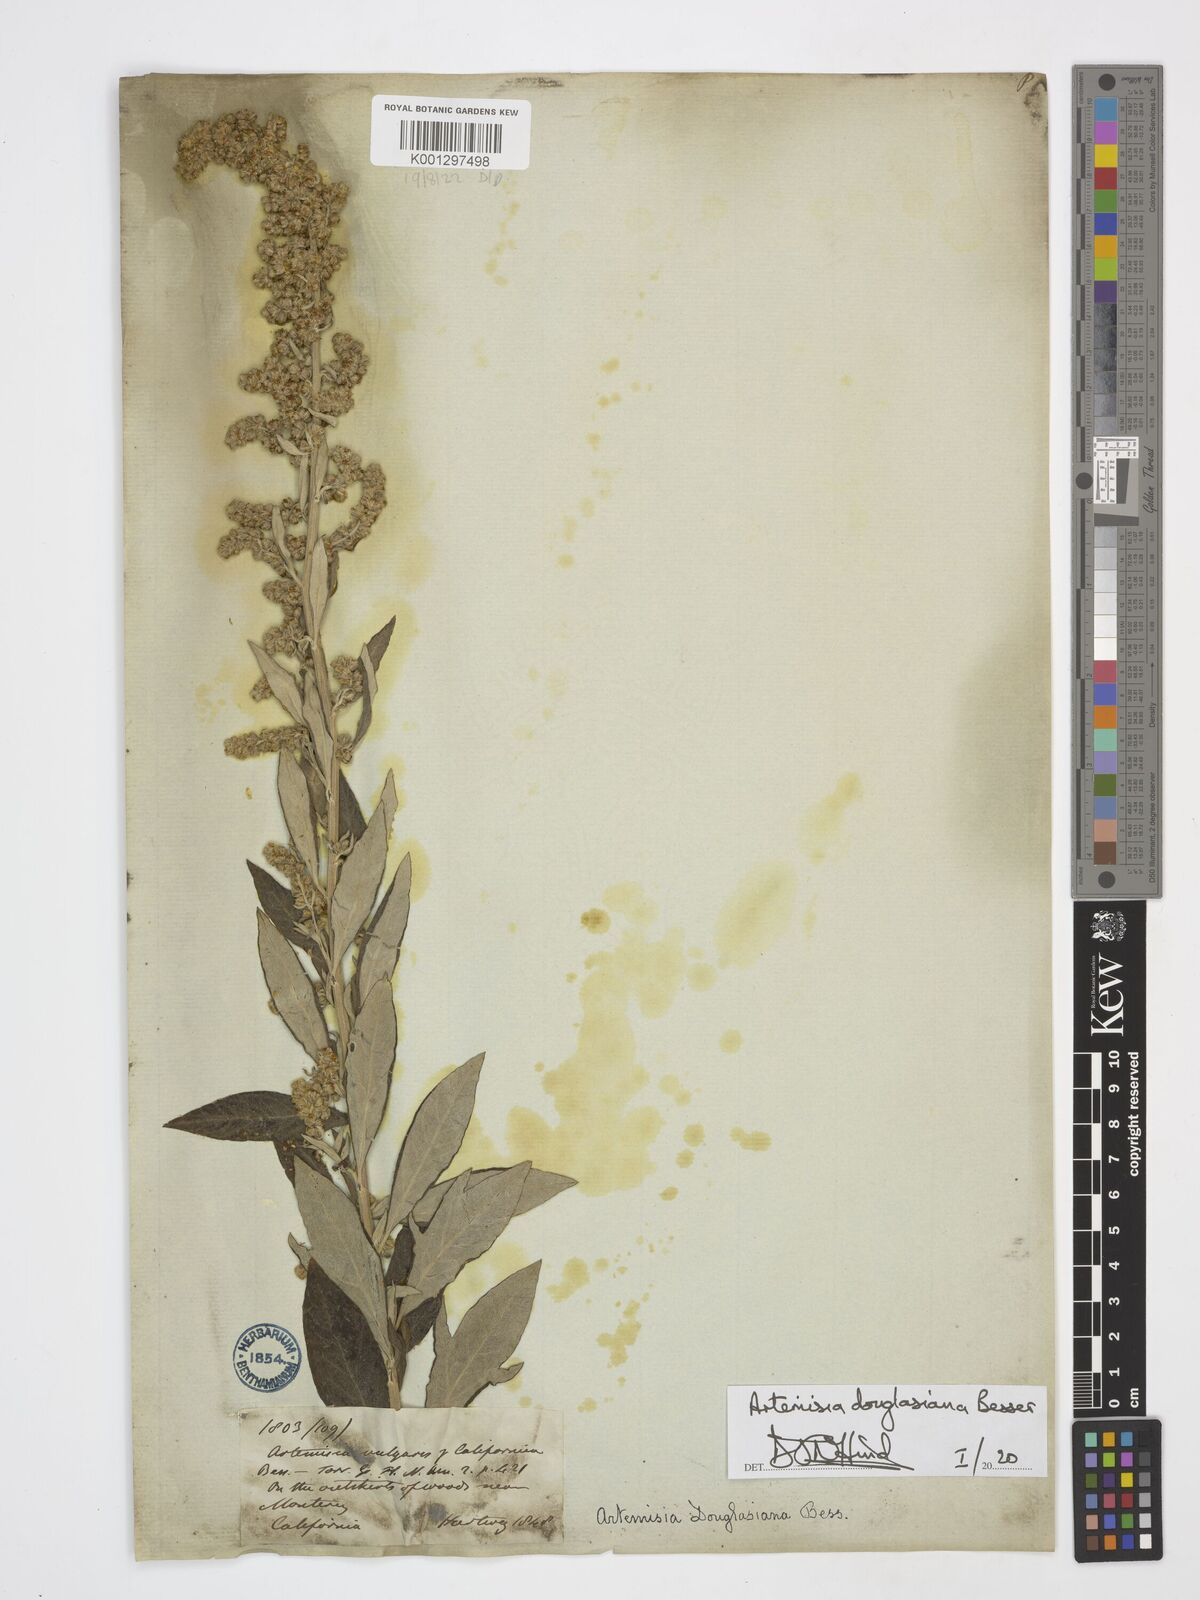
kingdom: Plantae
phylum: Tracheophyta
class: Magnoliopsida
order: Asterales
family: Asteraceae
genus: Artemisia
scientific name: Artemisia douglasiana
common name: Northwest mugwort
